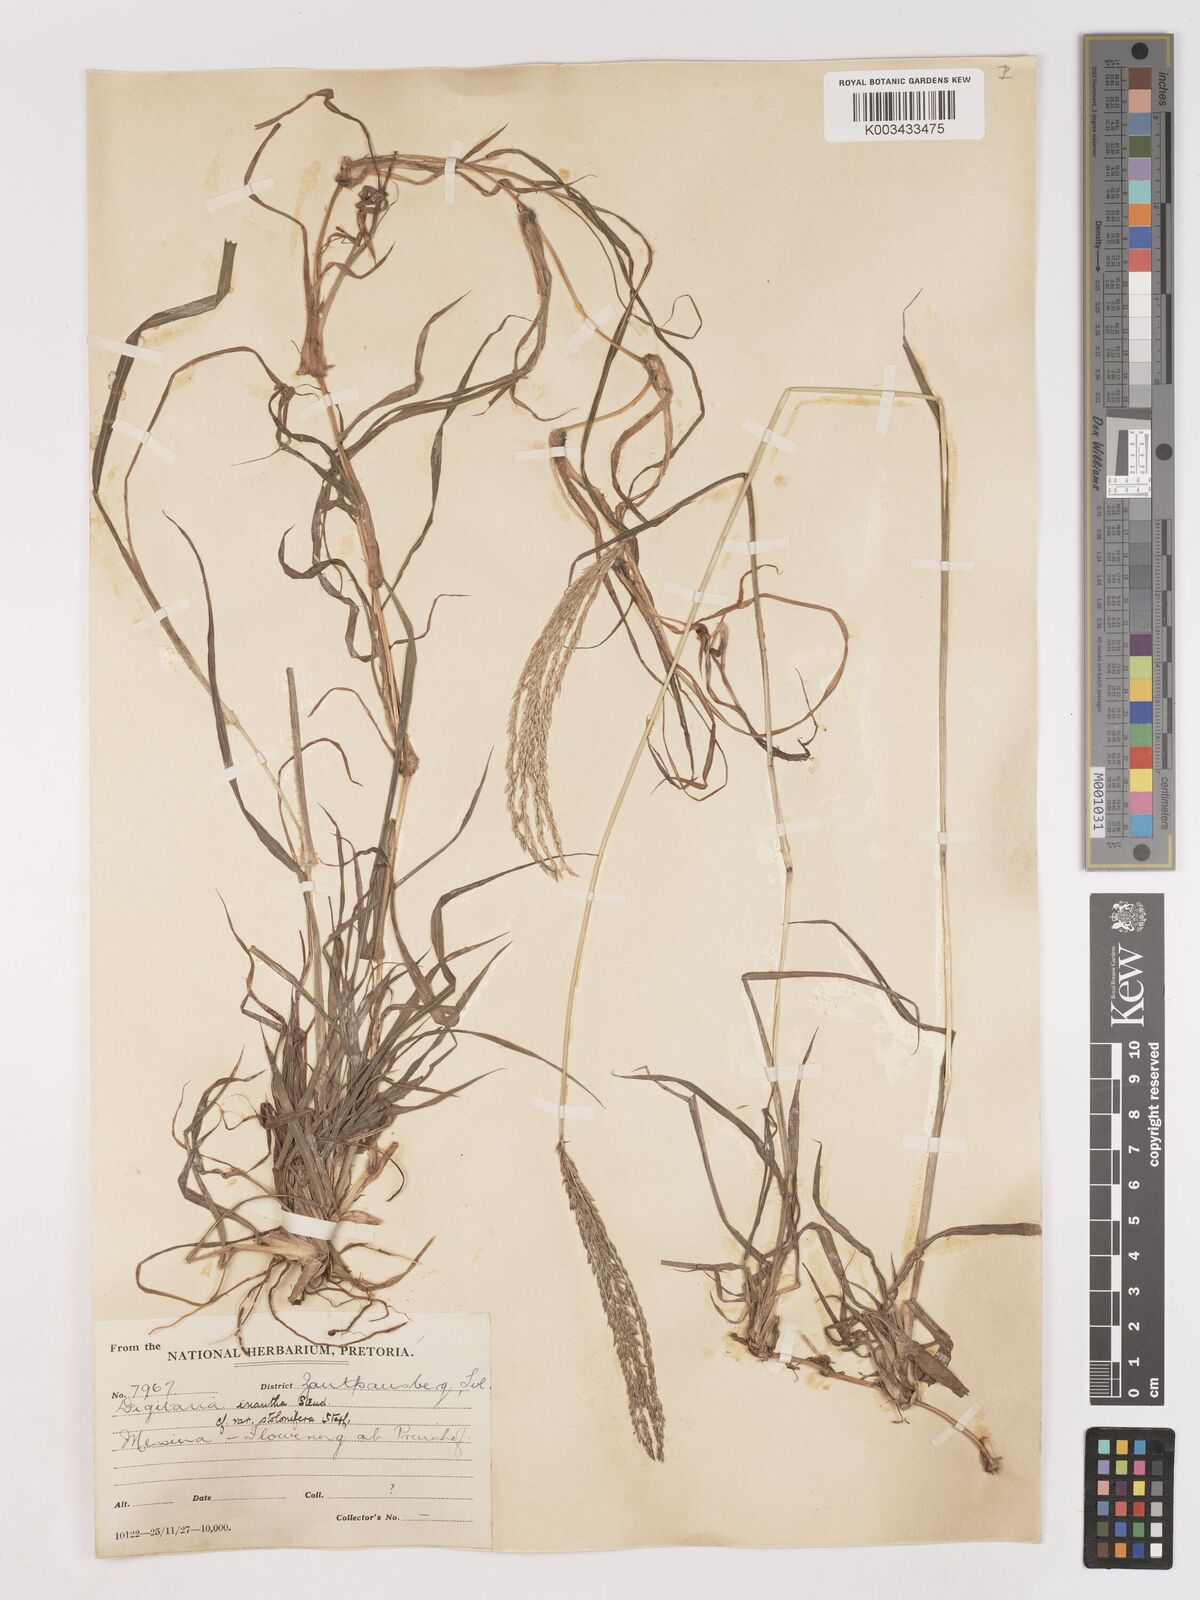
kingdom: Plantae
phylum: Tracheophyta
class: Liliopsida
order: Poales
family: Poaceae
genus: Digitaria
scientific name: Digitaria eriantha
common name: Digitgrass
